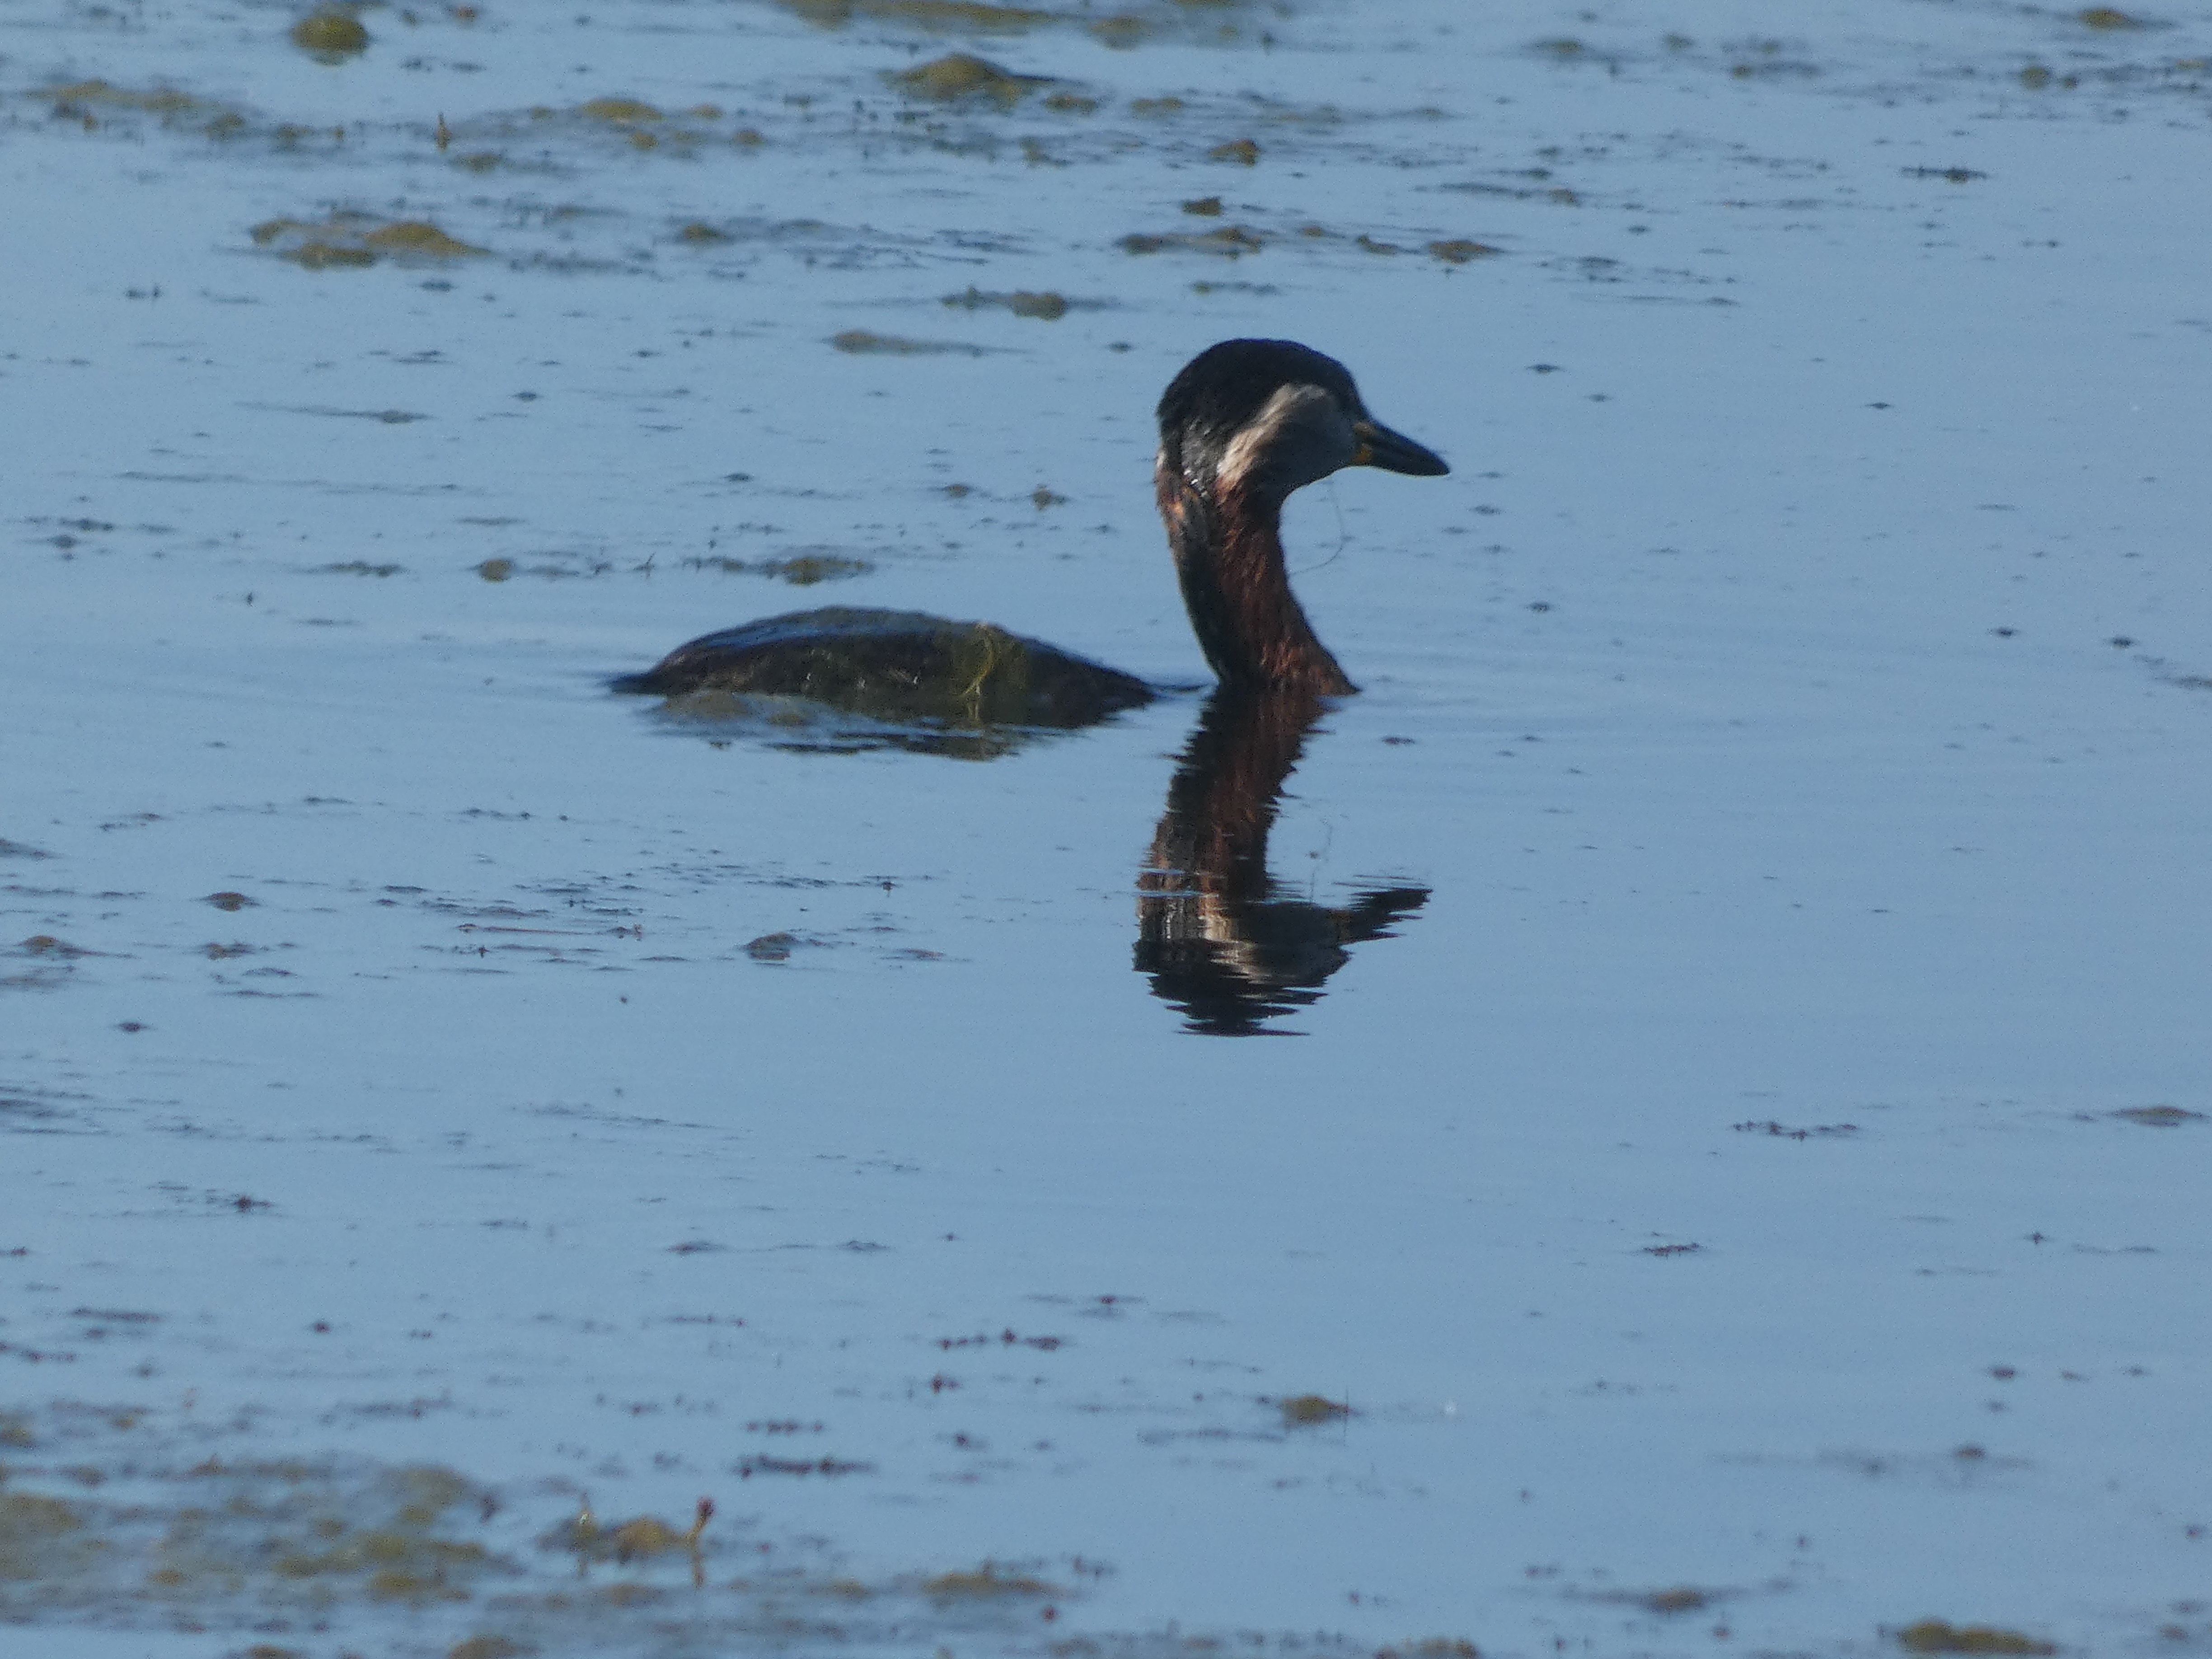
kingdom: Animalia
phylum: Chordata
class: Aves
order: Podicipediformes
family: Podicipedidae
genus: Podiceps
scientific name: Podiceps grisegena
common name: Gråstrubet lappedykker
